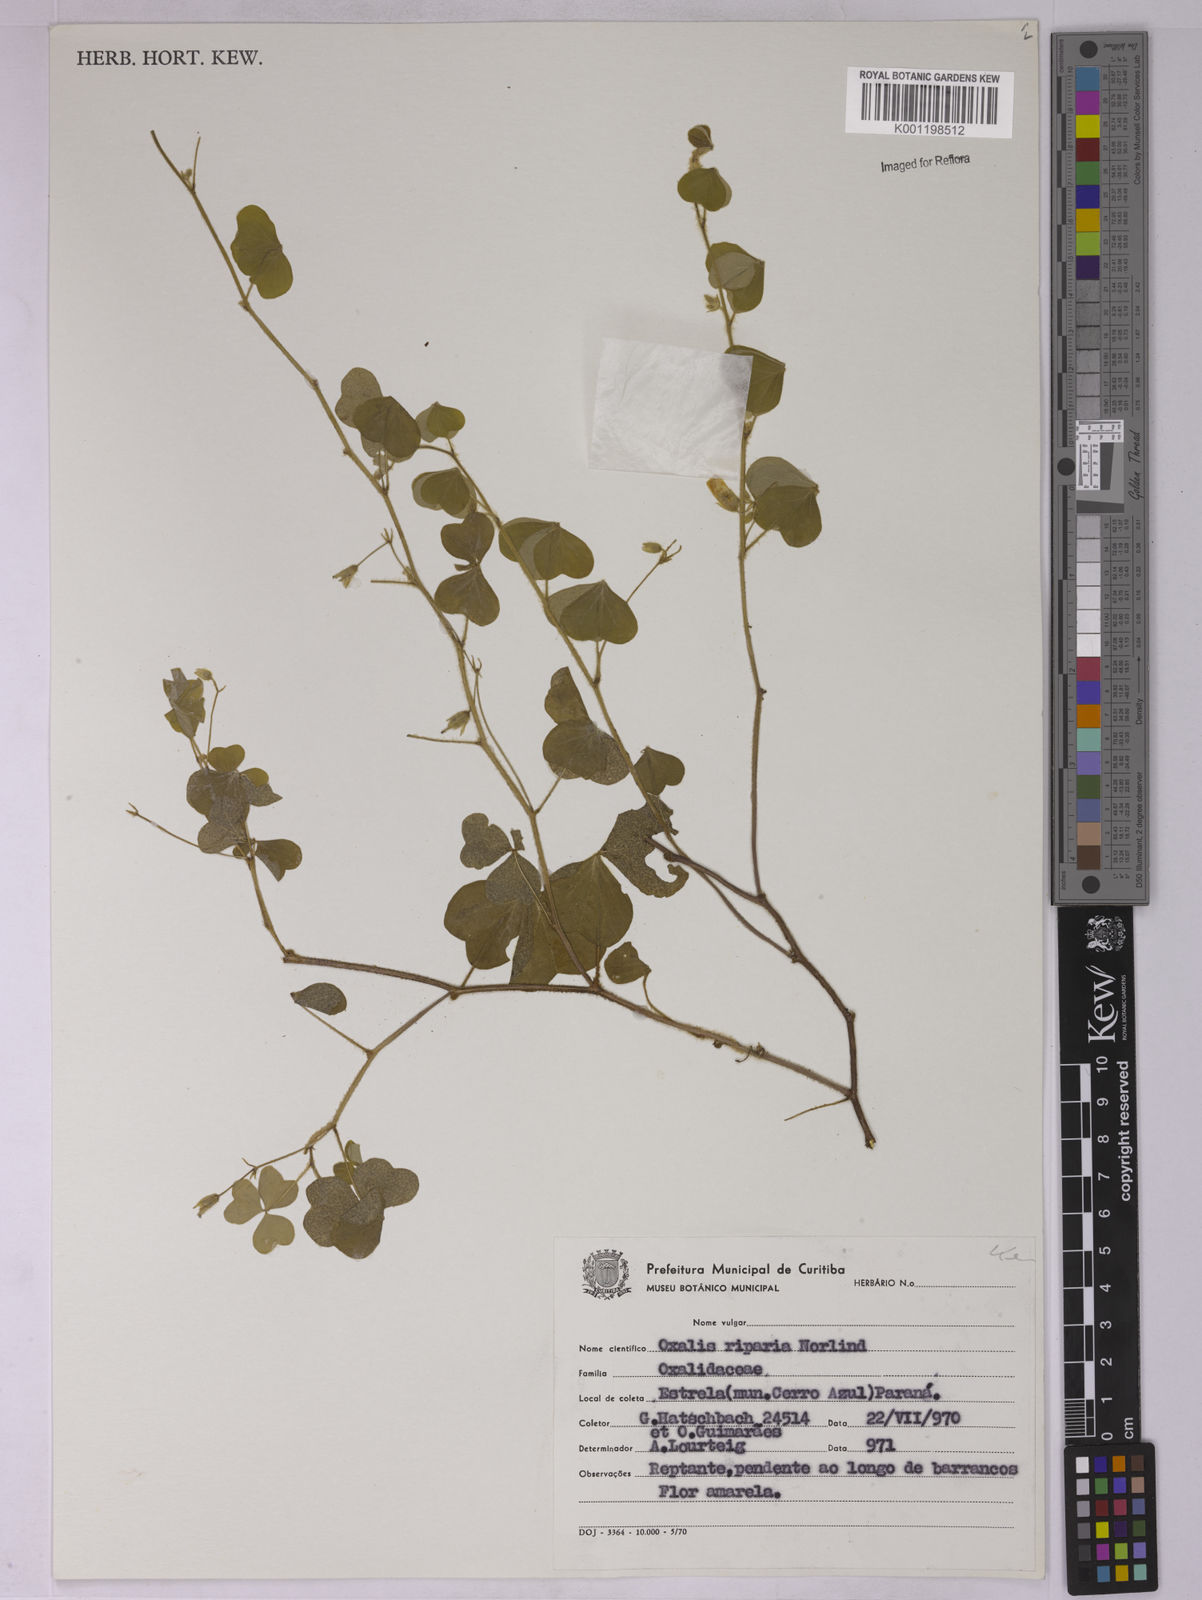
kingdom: Plantae
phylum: Tracheophyta
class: Magnoliopsida
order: Oxalidales
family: Oxalidaceae
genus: Oxalis
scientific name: Oxalis riparia
